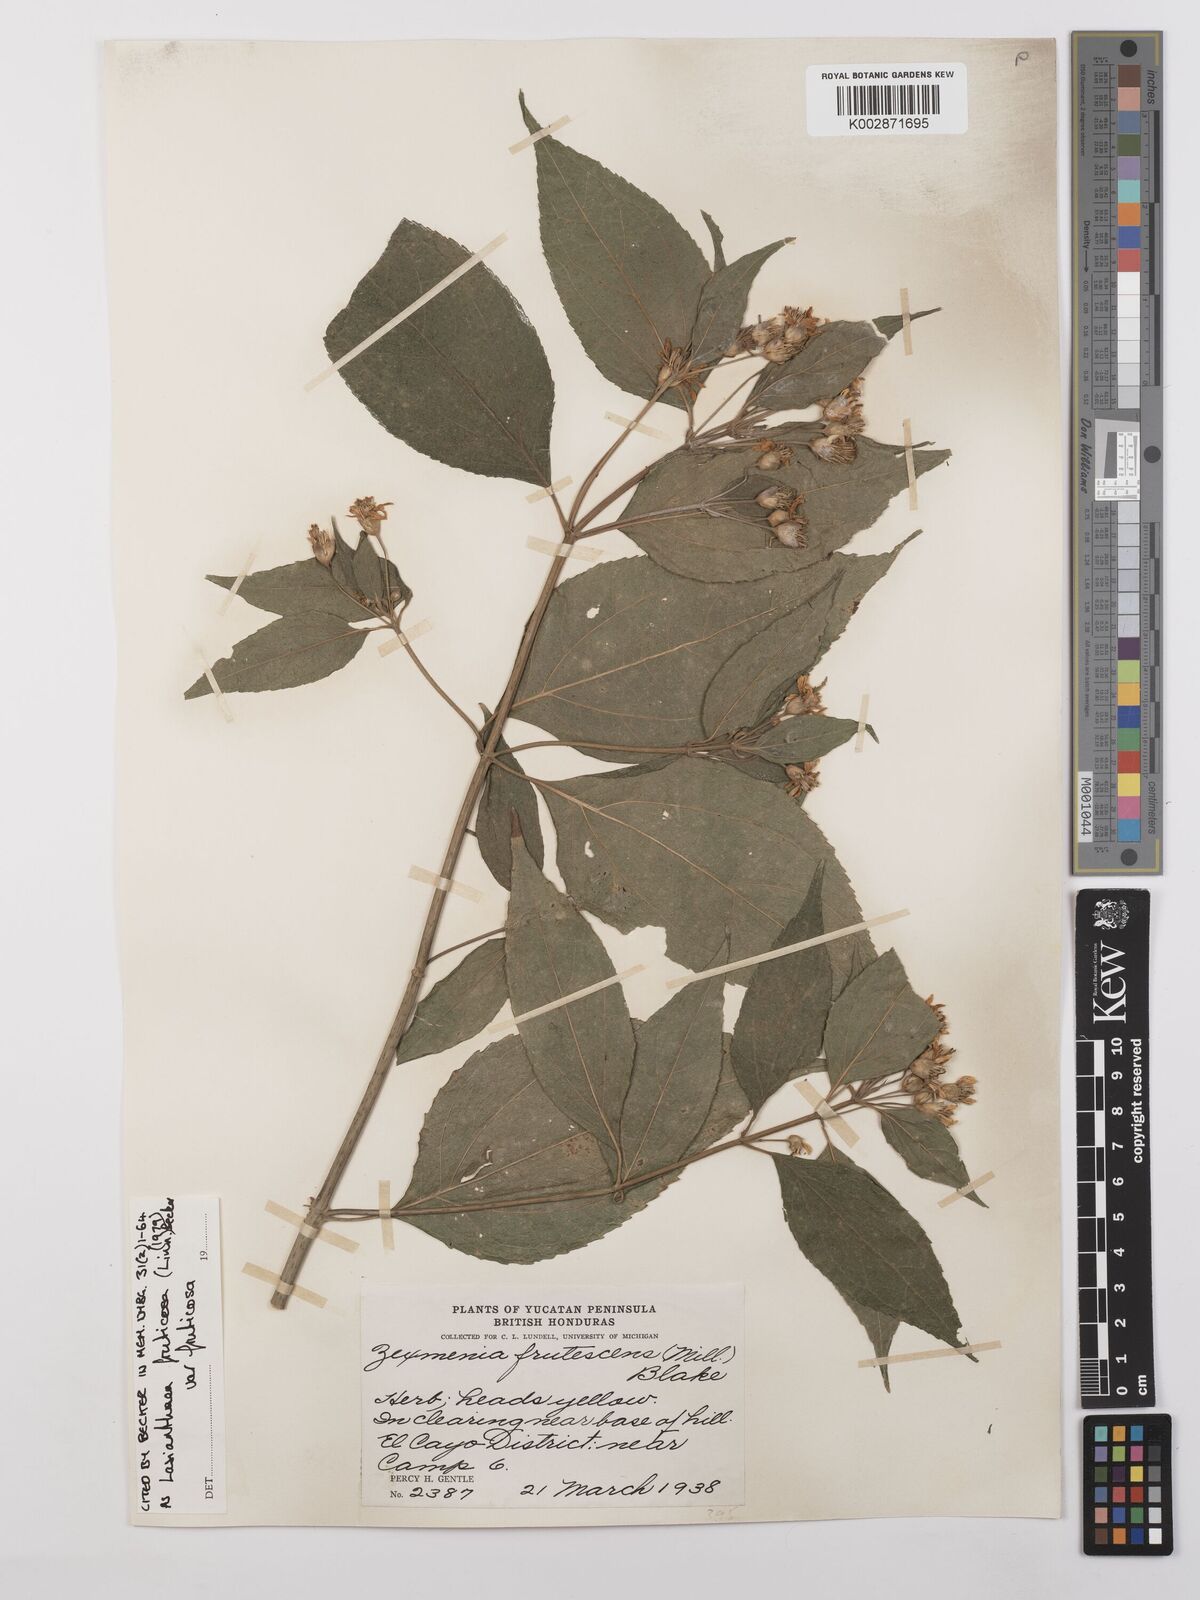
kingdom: Plantae
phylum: Tracheophyta
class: Magnoliopsida
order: Asterales
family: Asteraceae
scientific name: Asteraceae
